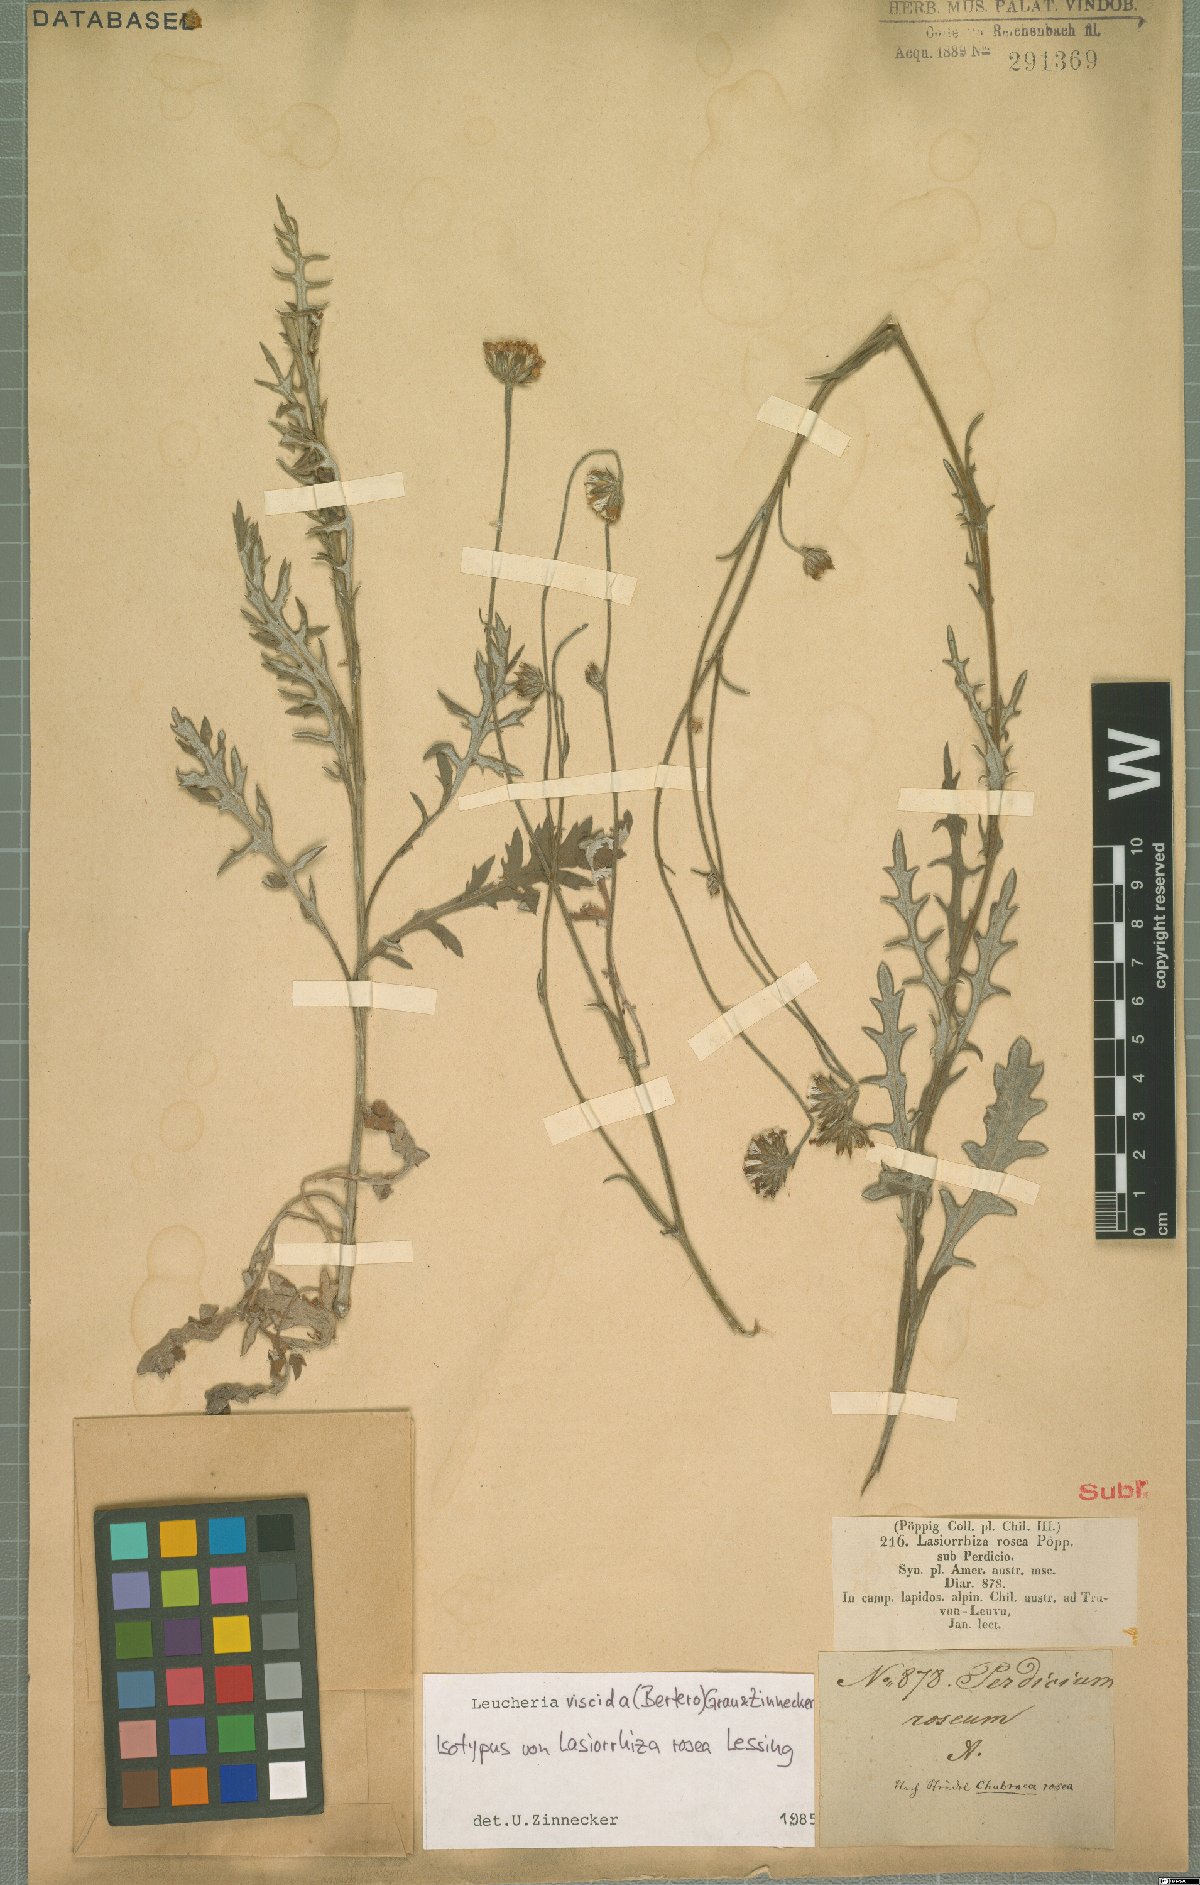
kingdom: Plantae
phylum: Tracheophyta
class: Magnoliopsida
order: Asterales
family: Asteraceae
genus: Leucheria
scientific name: Leucheria viscida
